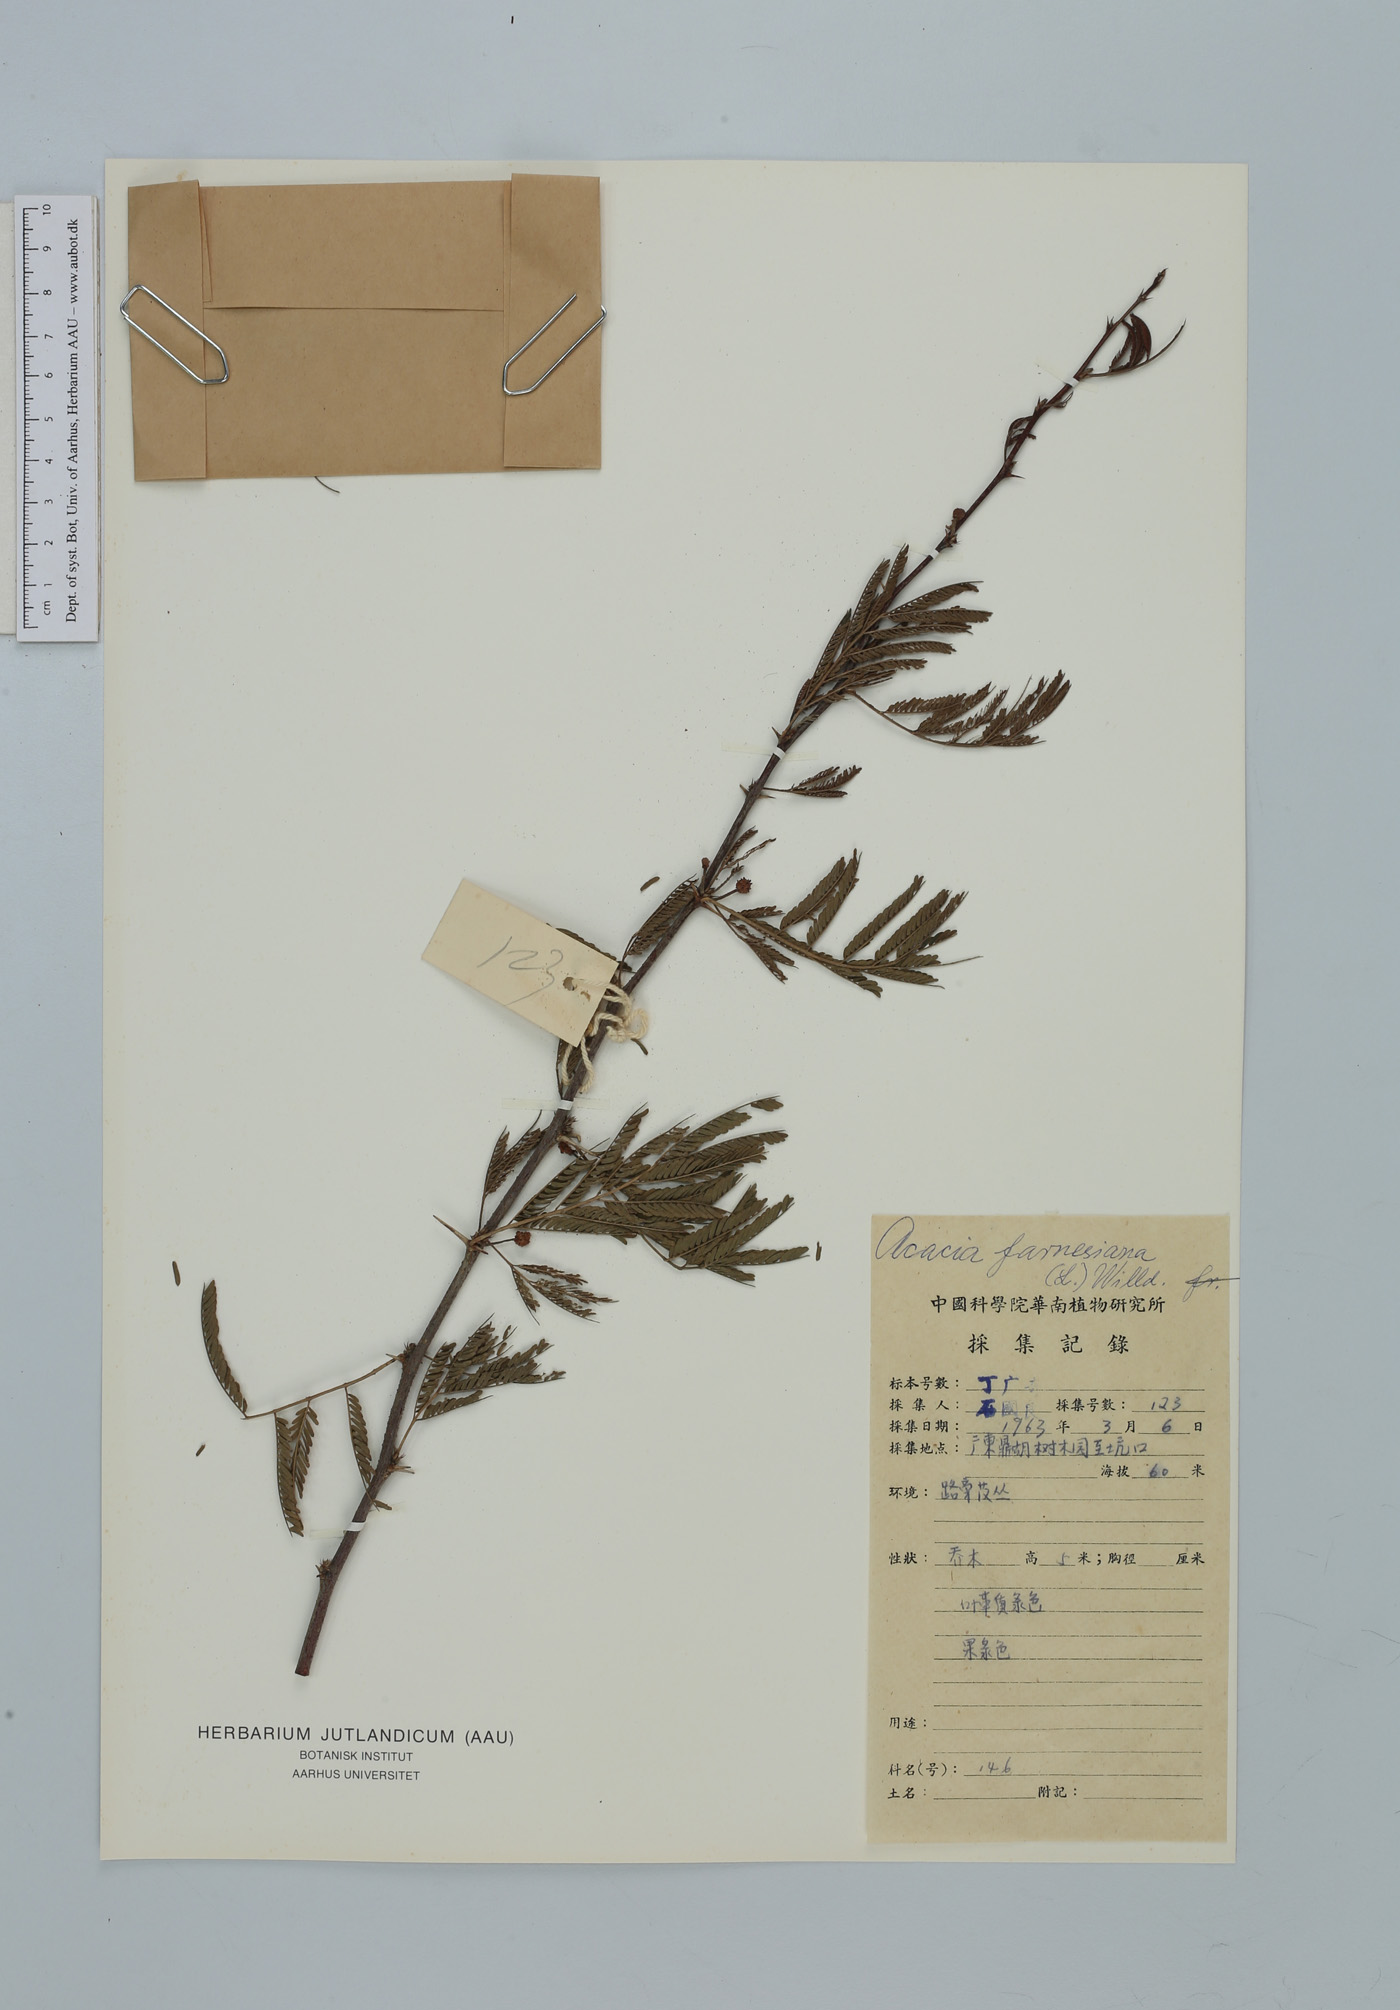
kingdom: Plantae
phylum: Tracheophyta
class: Magnoliopsida
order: Fabales
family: Fabaceae
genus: Vachellia
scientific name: Vachellia farnesiana
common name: Sweet acacia
